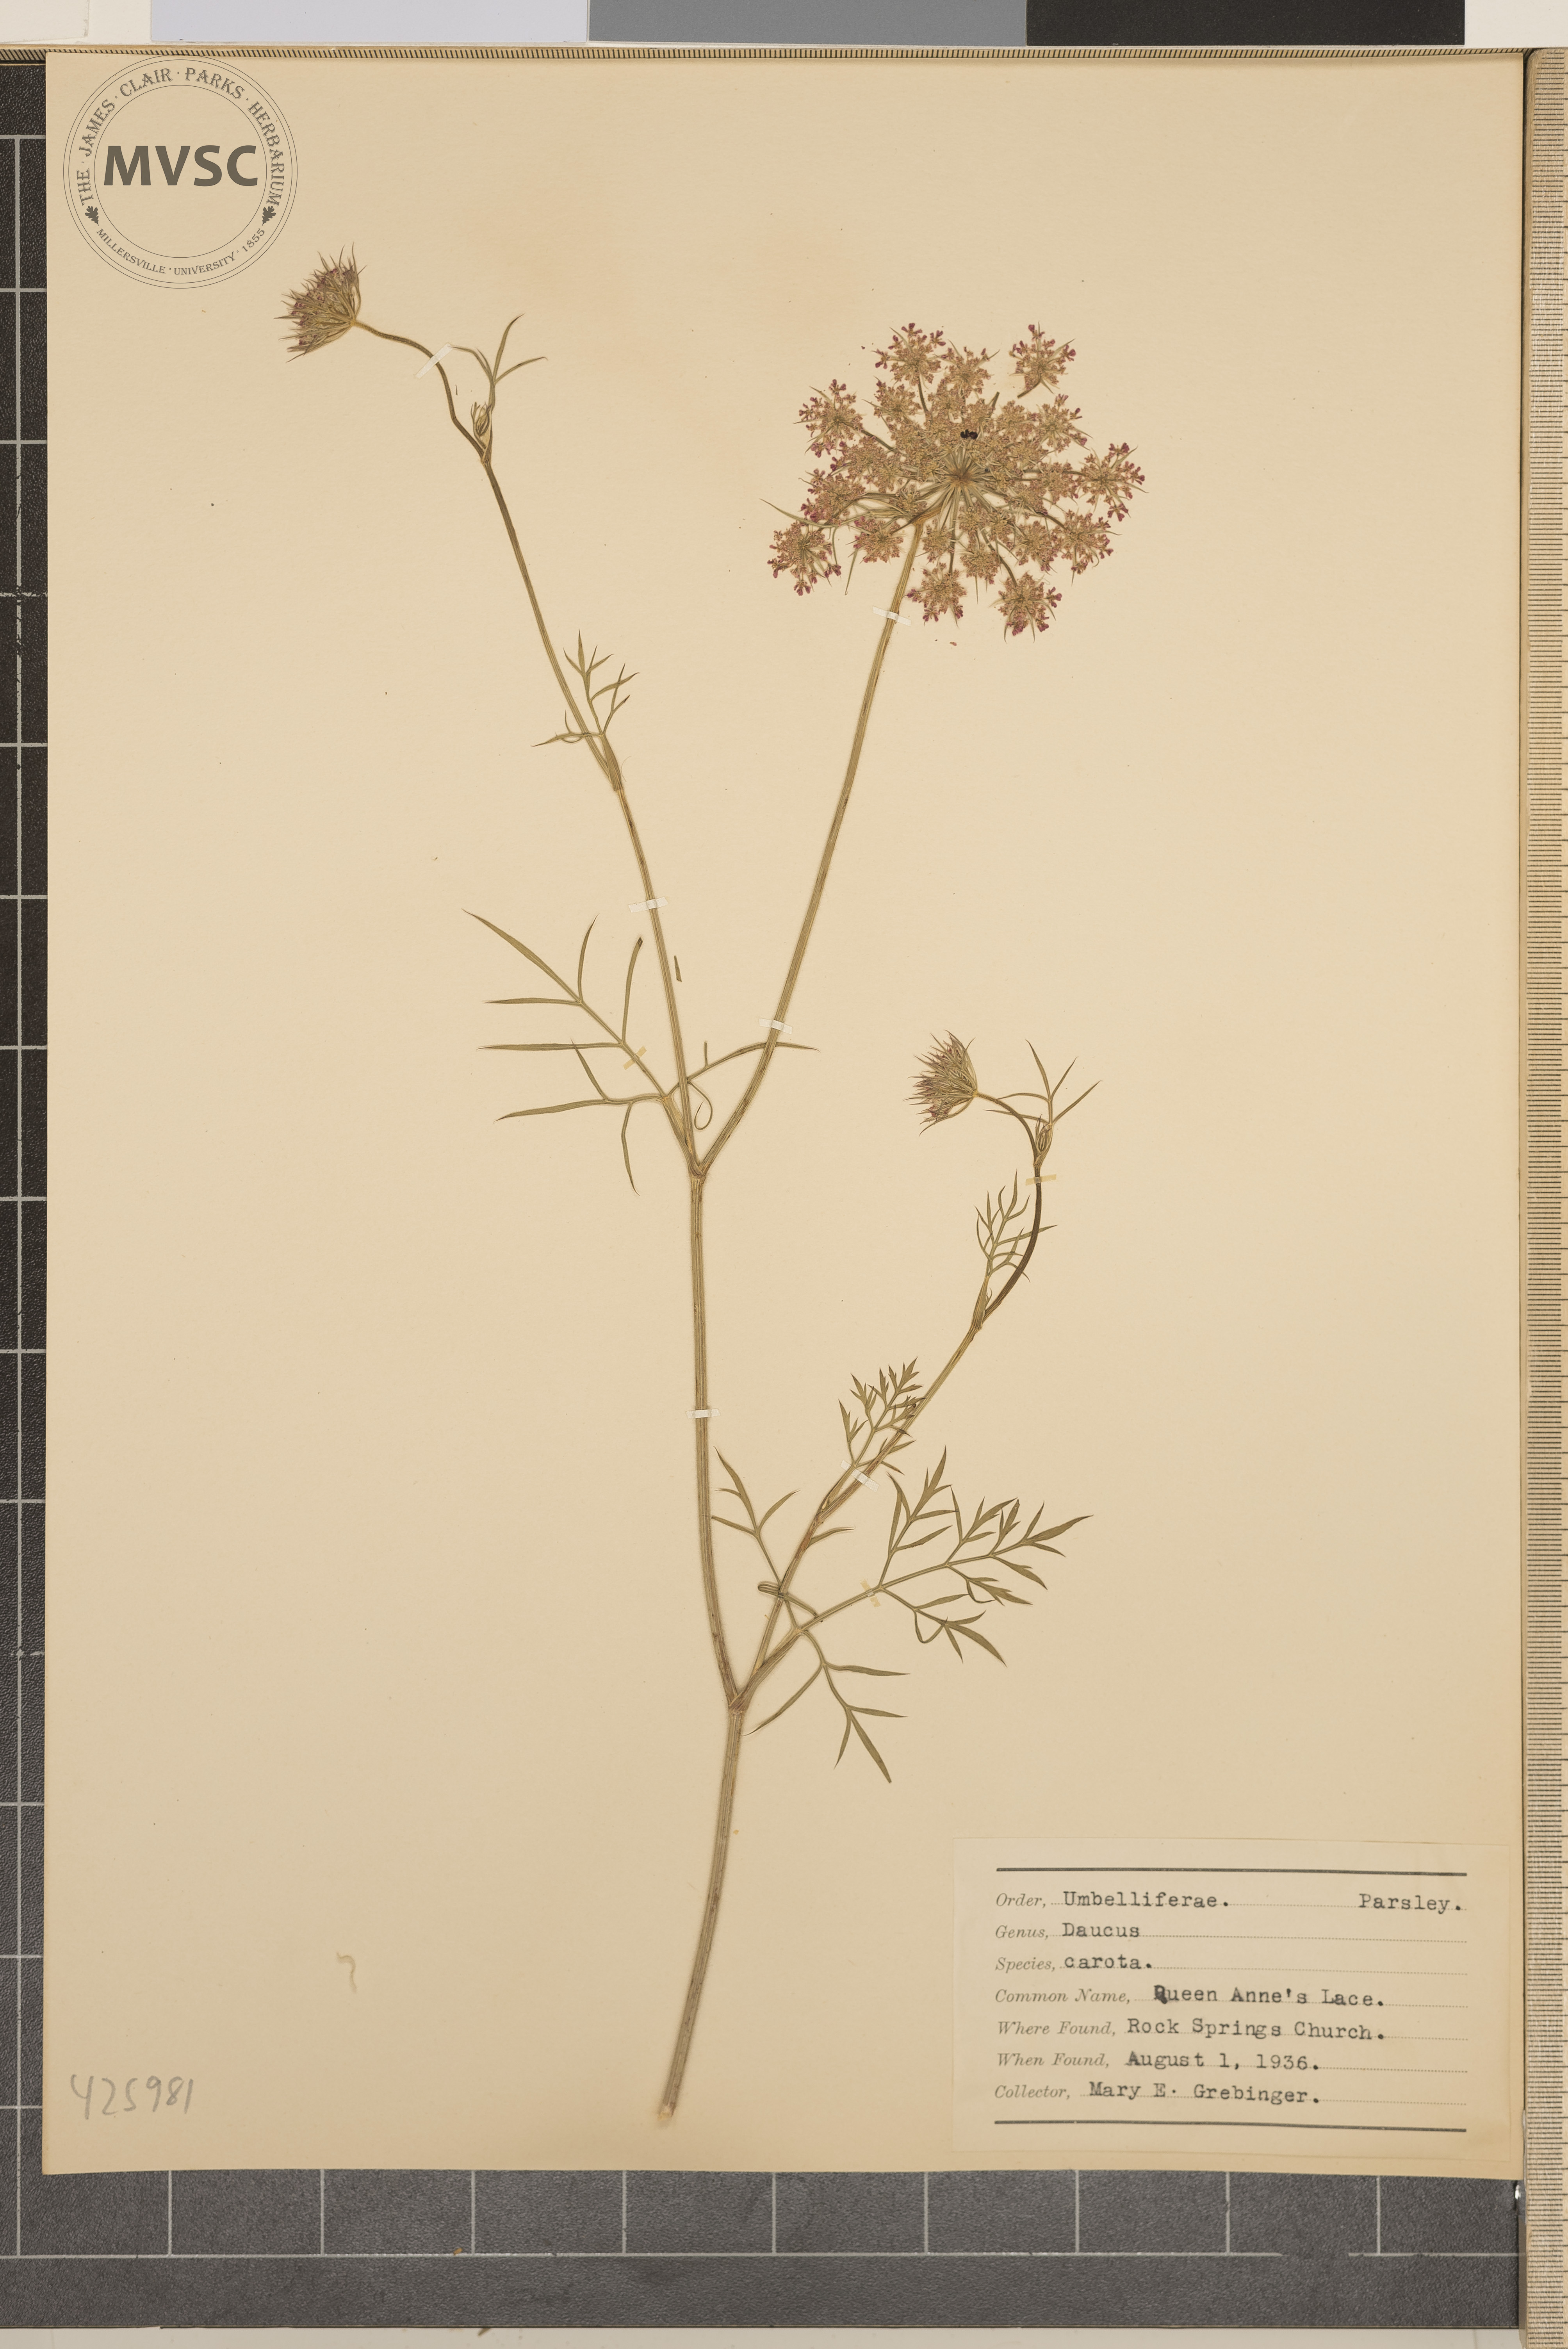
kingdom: Plantae
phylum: Tracheophyta
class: Magnoliopsida
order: Apiales
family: Apiaceae
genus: Daucus
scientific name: Daucus carota
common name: Queen Anne's Lace
